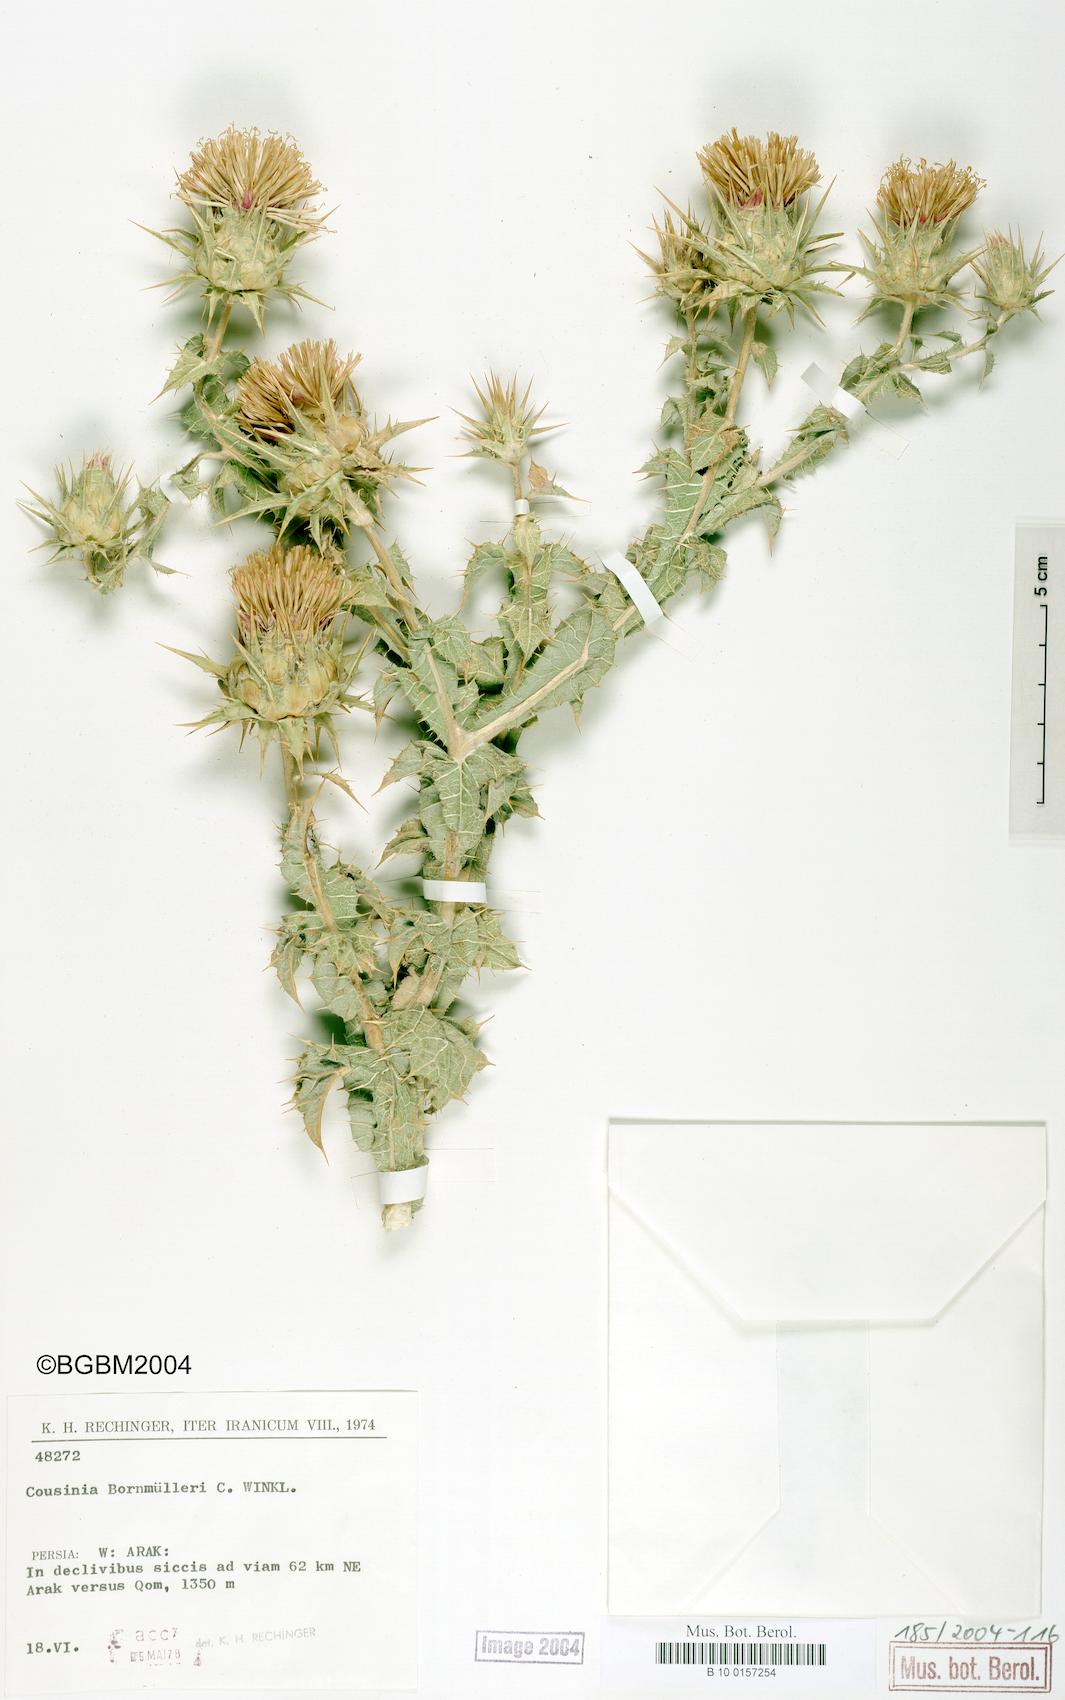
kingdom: Plantae
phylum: Tracheophyta
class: Magnoliopsida
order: Asterales
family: Asteraceae
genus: Cousinia
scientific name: Cousinia onopordioides
